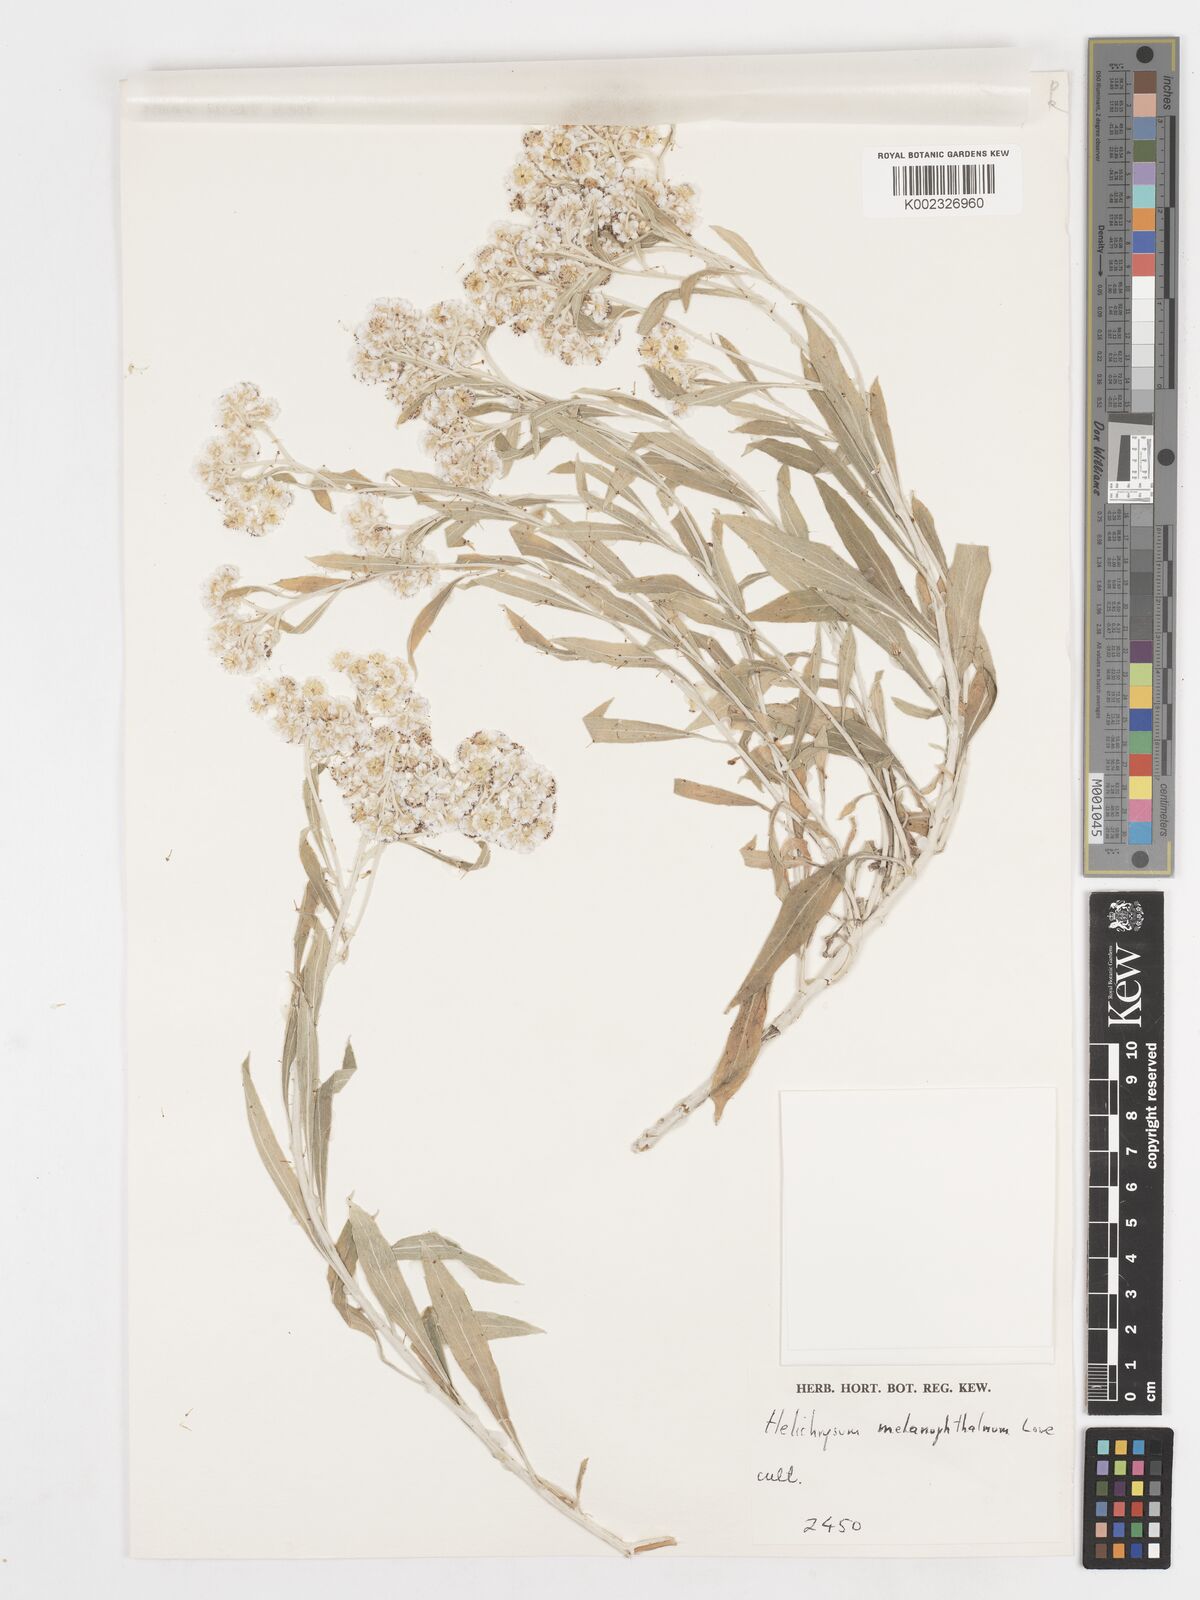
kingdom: Plantae
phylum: Tracheophyta
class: Magnoliopsida
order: Asterales
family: Asteraceae
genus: Helichrysum
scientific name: Helichrysum melaleucum
